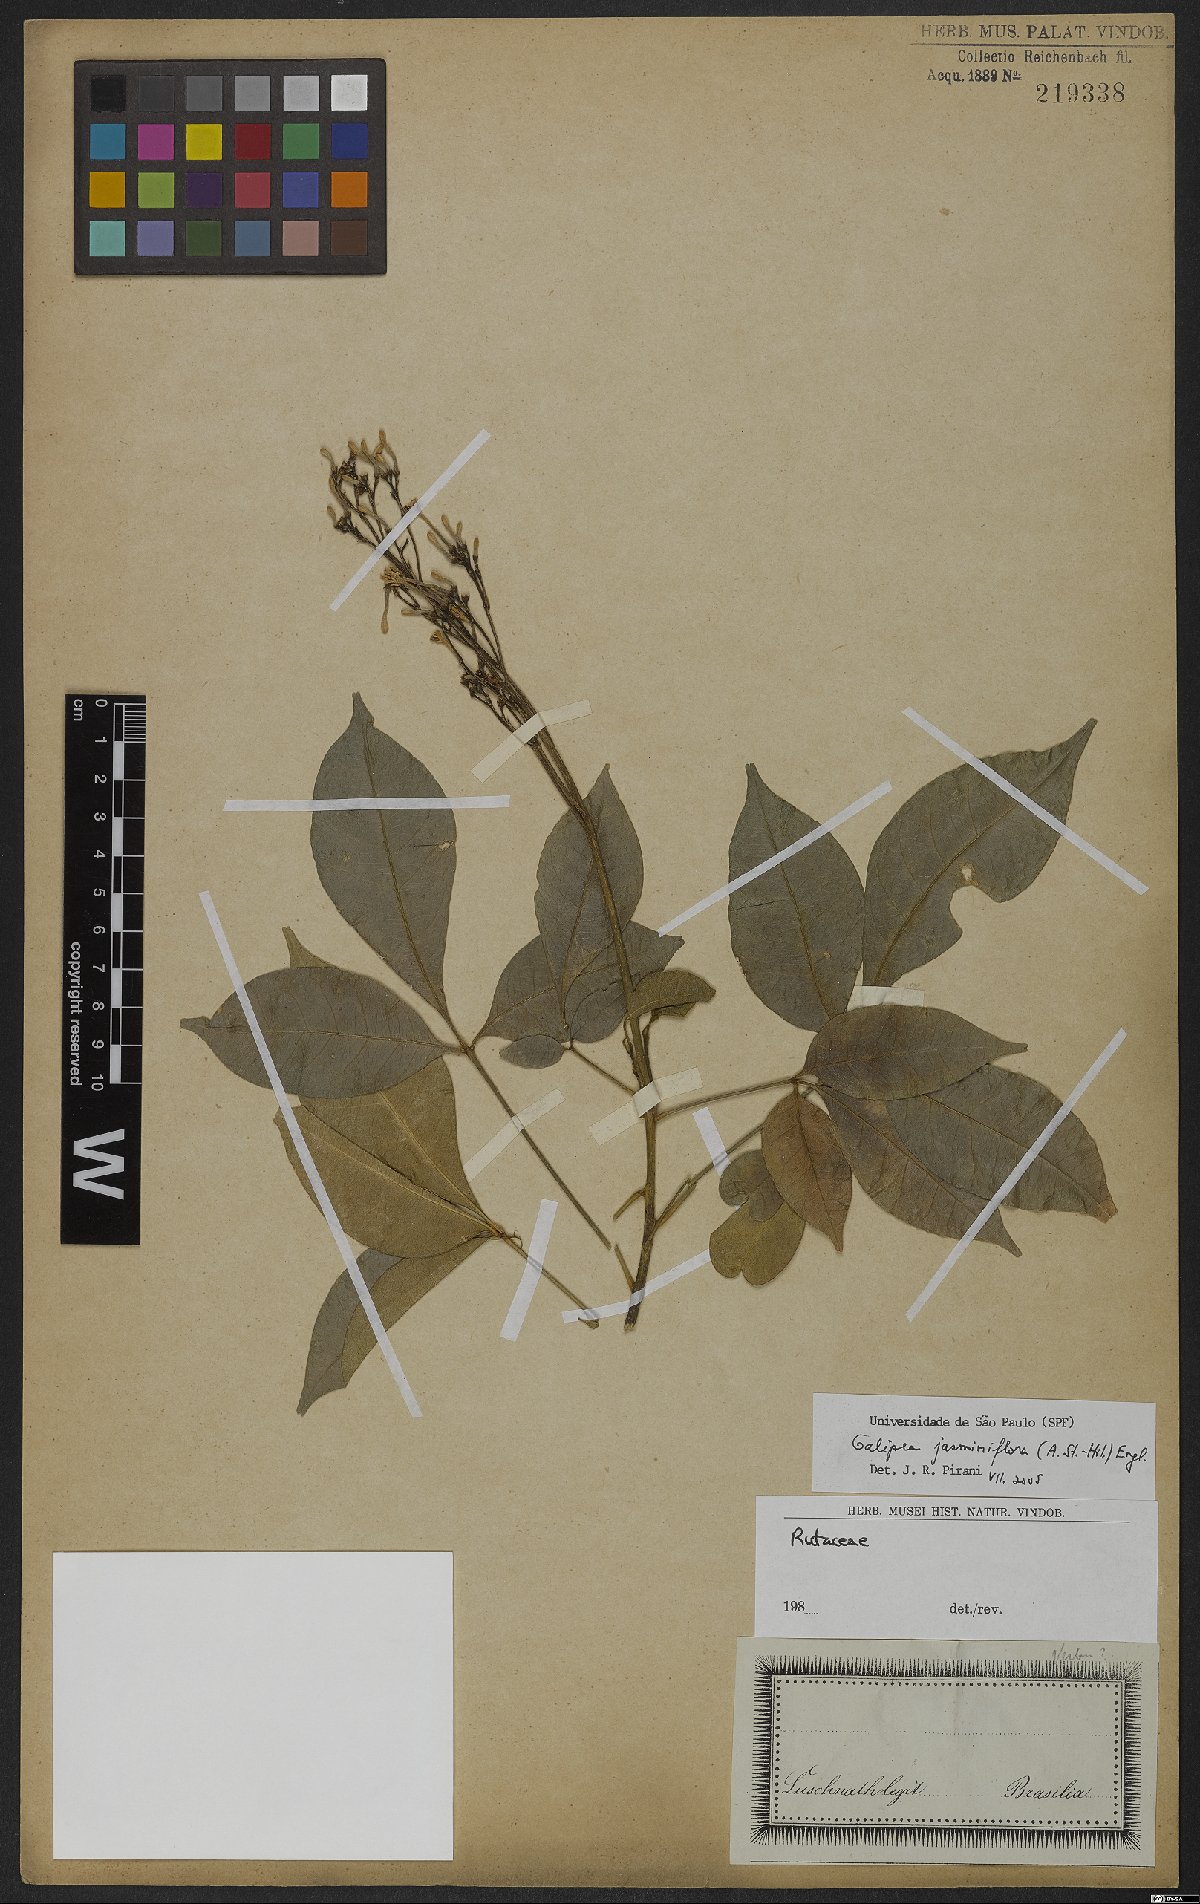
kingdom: Plantae
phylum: Tracheophyta
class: Magnoliopsida
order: Sapindales
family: Rutaceae
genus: Galipea
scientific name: Galipea jasminiflora
